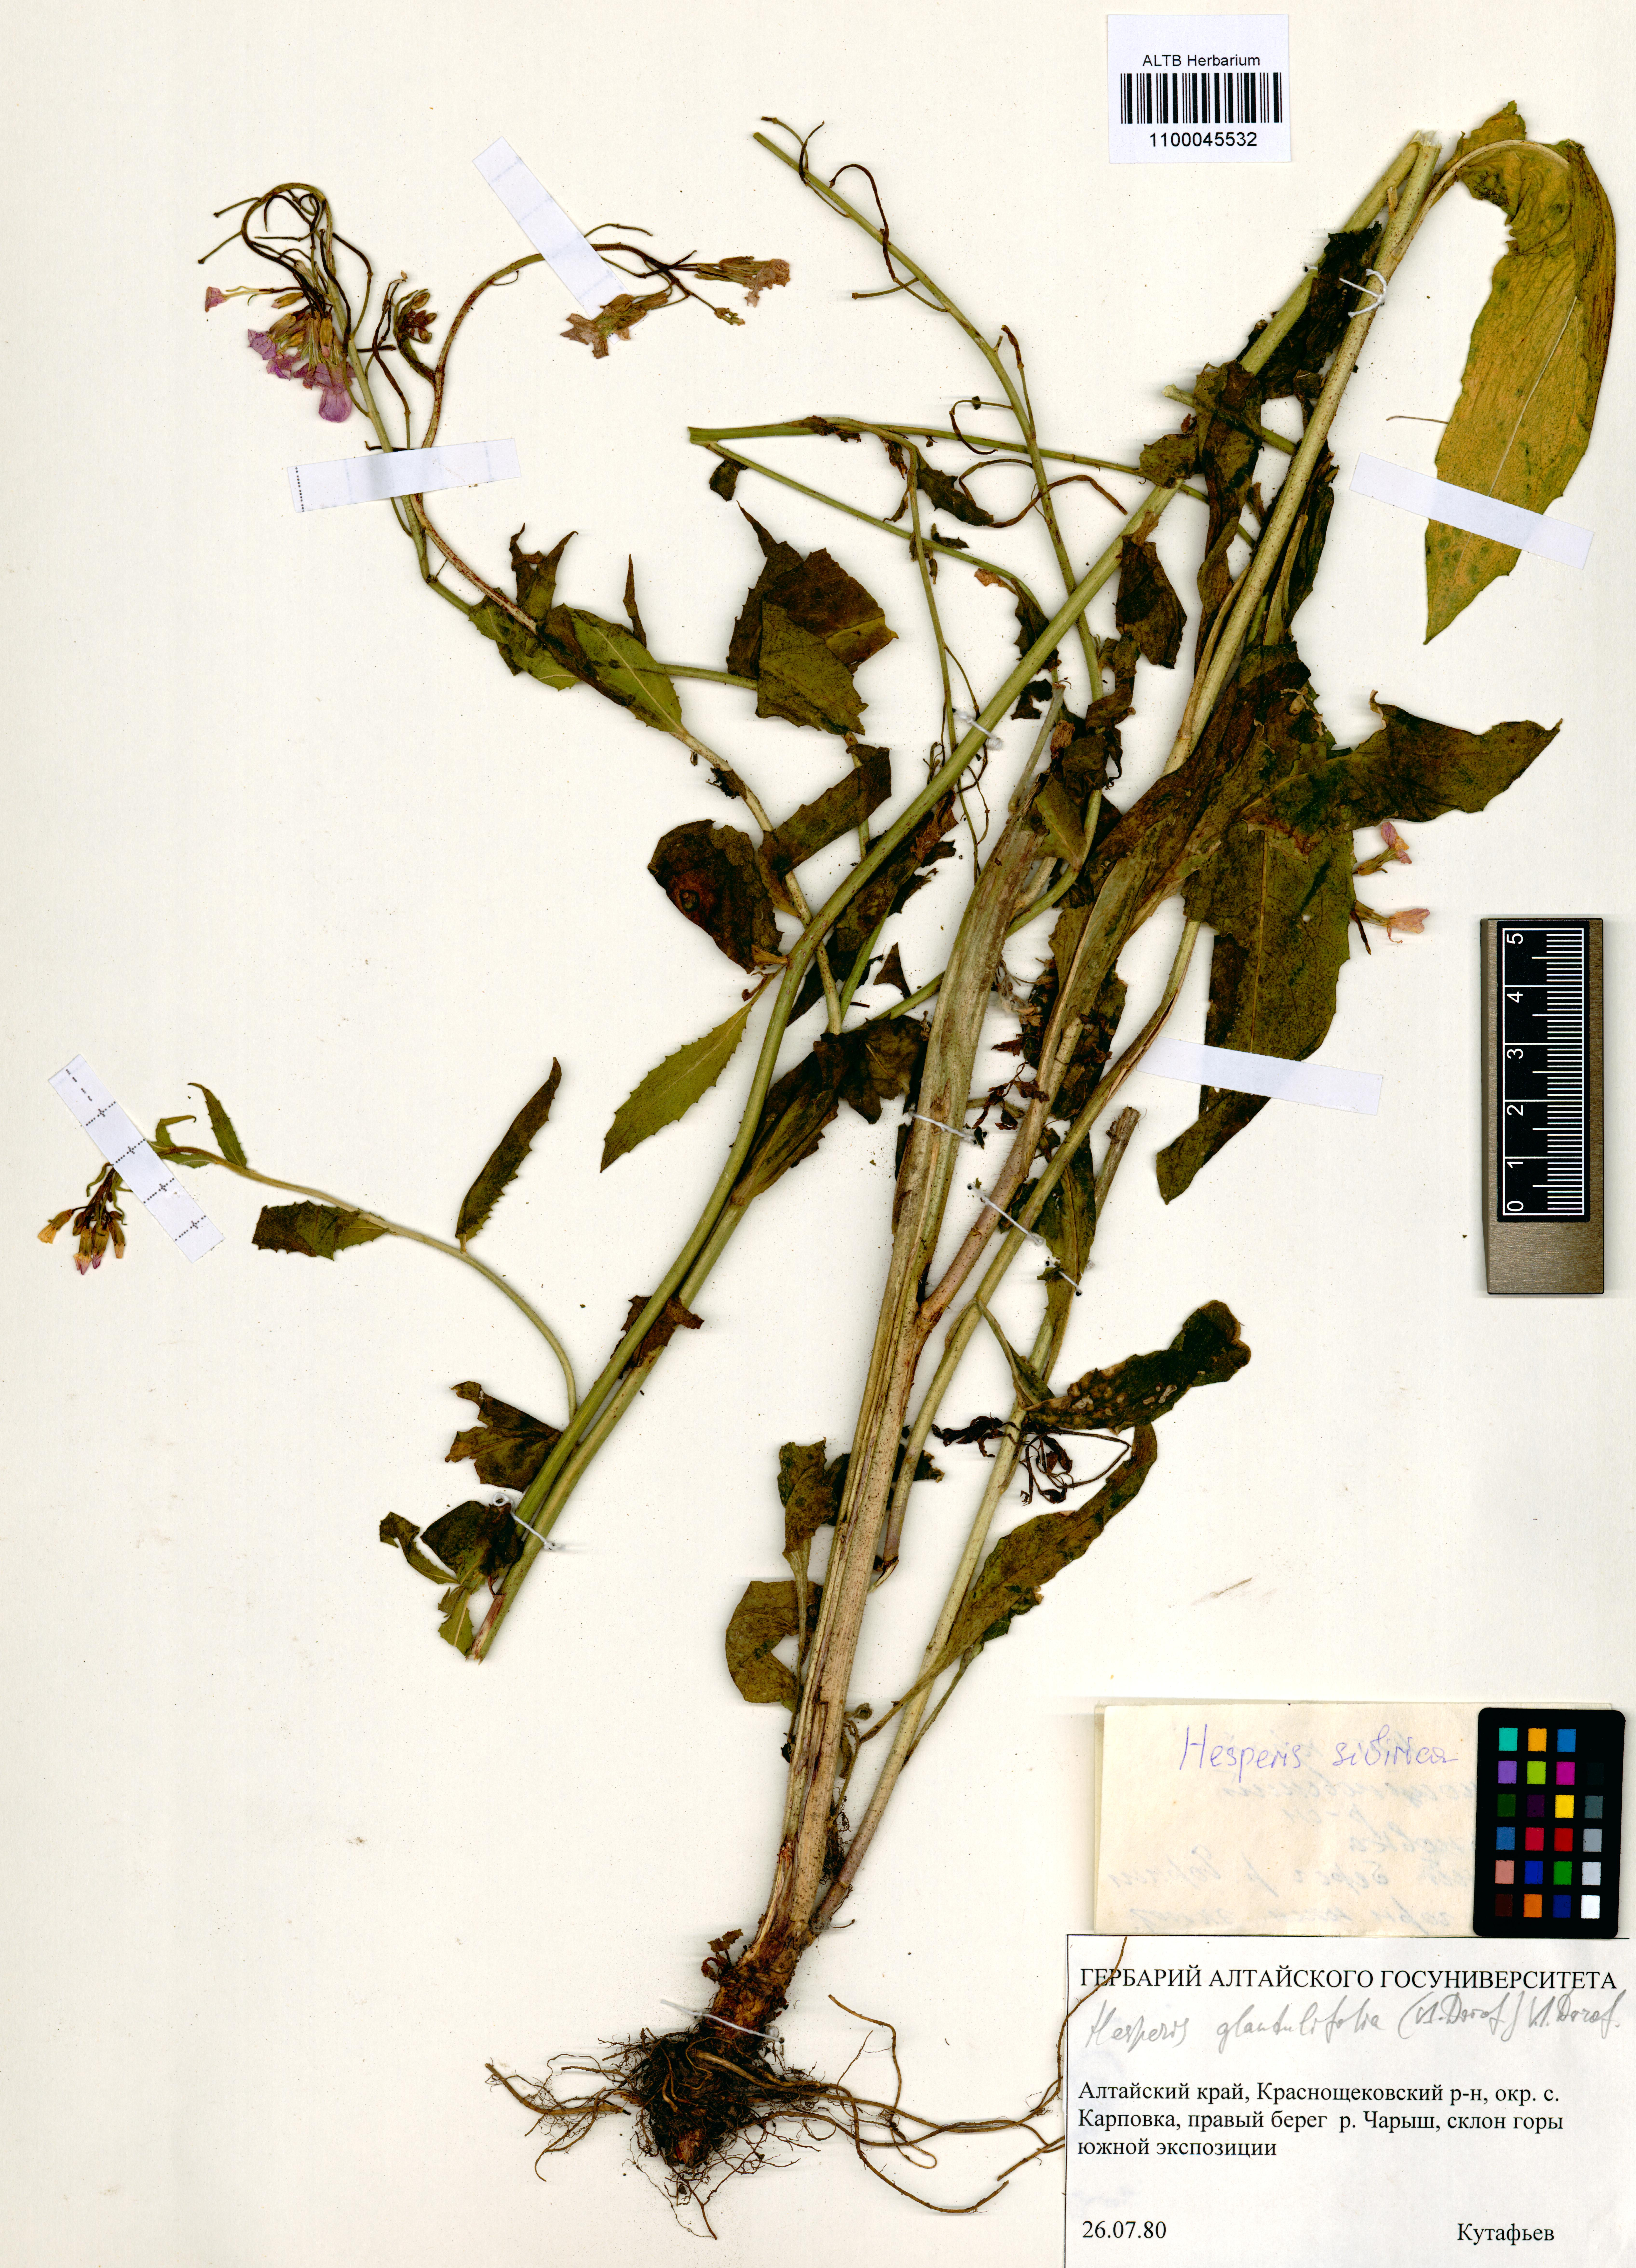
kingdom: Plantae
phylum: Tracheophyta
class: Magnoliopsida
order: Brassicales
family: Brassicaceae
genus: Hesperis
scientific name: Hesperis sibirica
